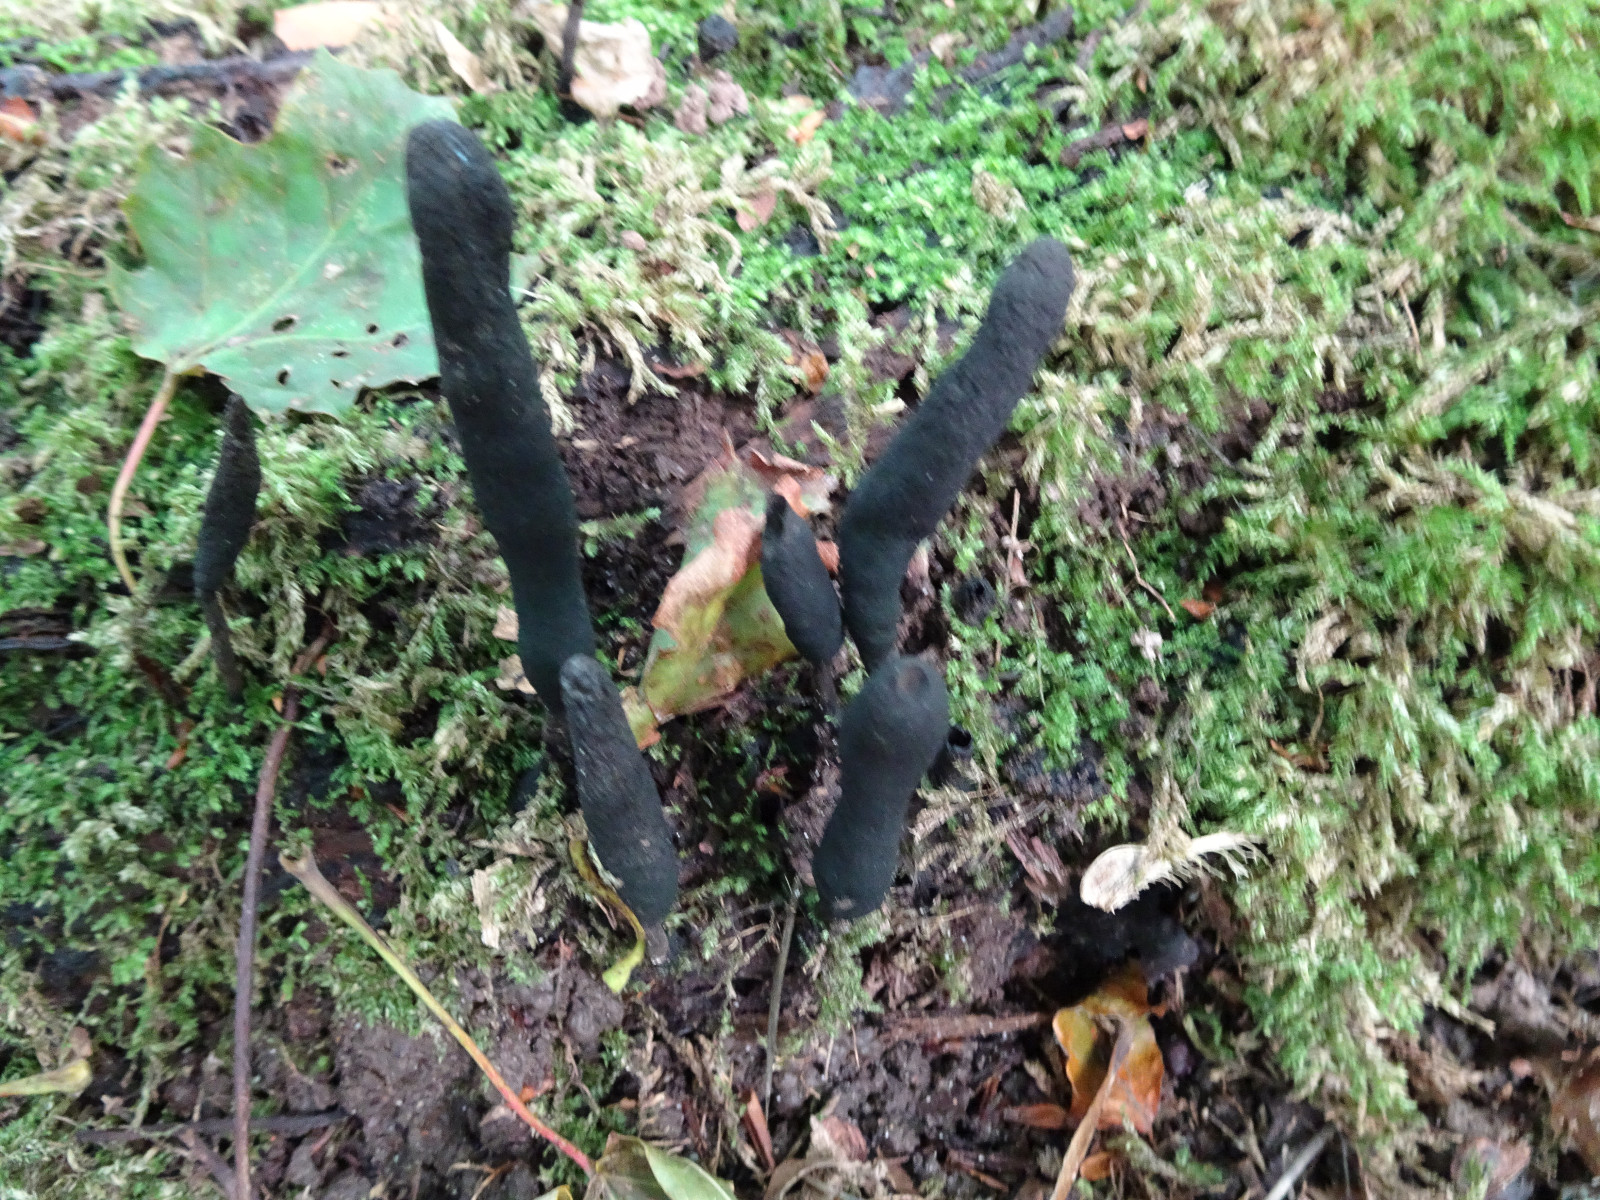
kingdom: Fungi
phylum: Ascomycota
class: Sordariomycetes
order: Xylariales
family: Xylariaceae
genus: Xylaria
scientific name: Xylaria longipes
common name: slank stødsvamp
